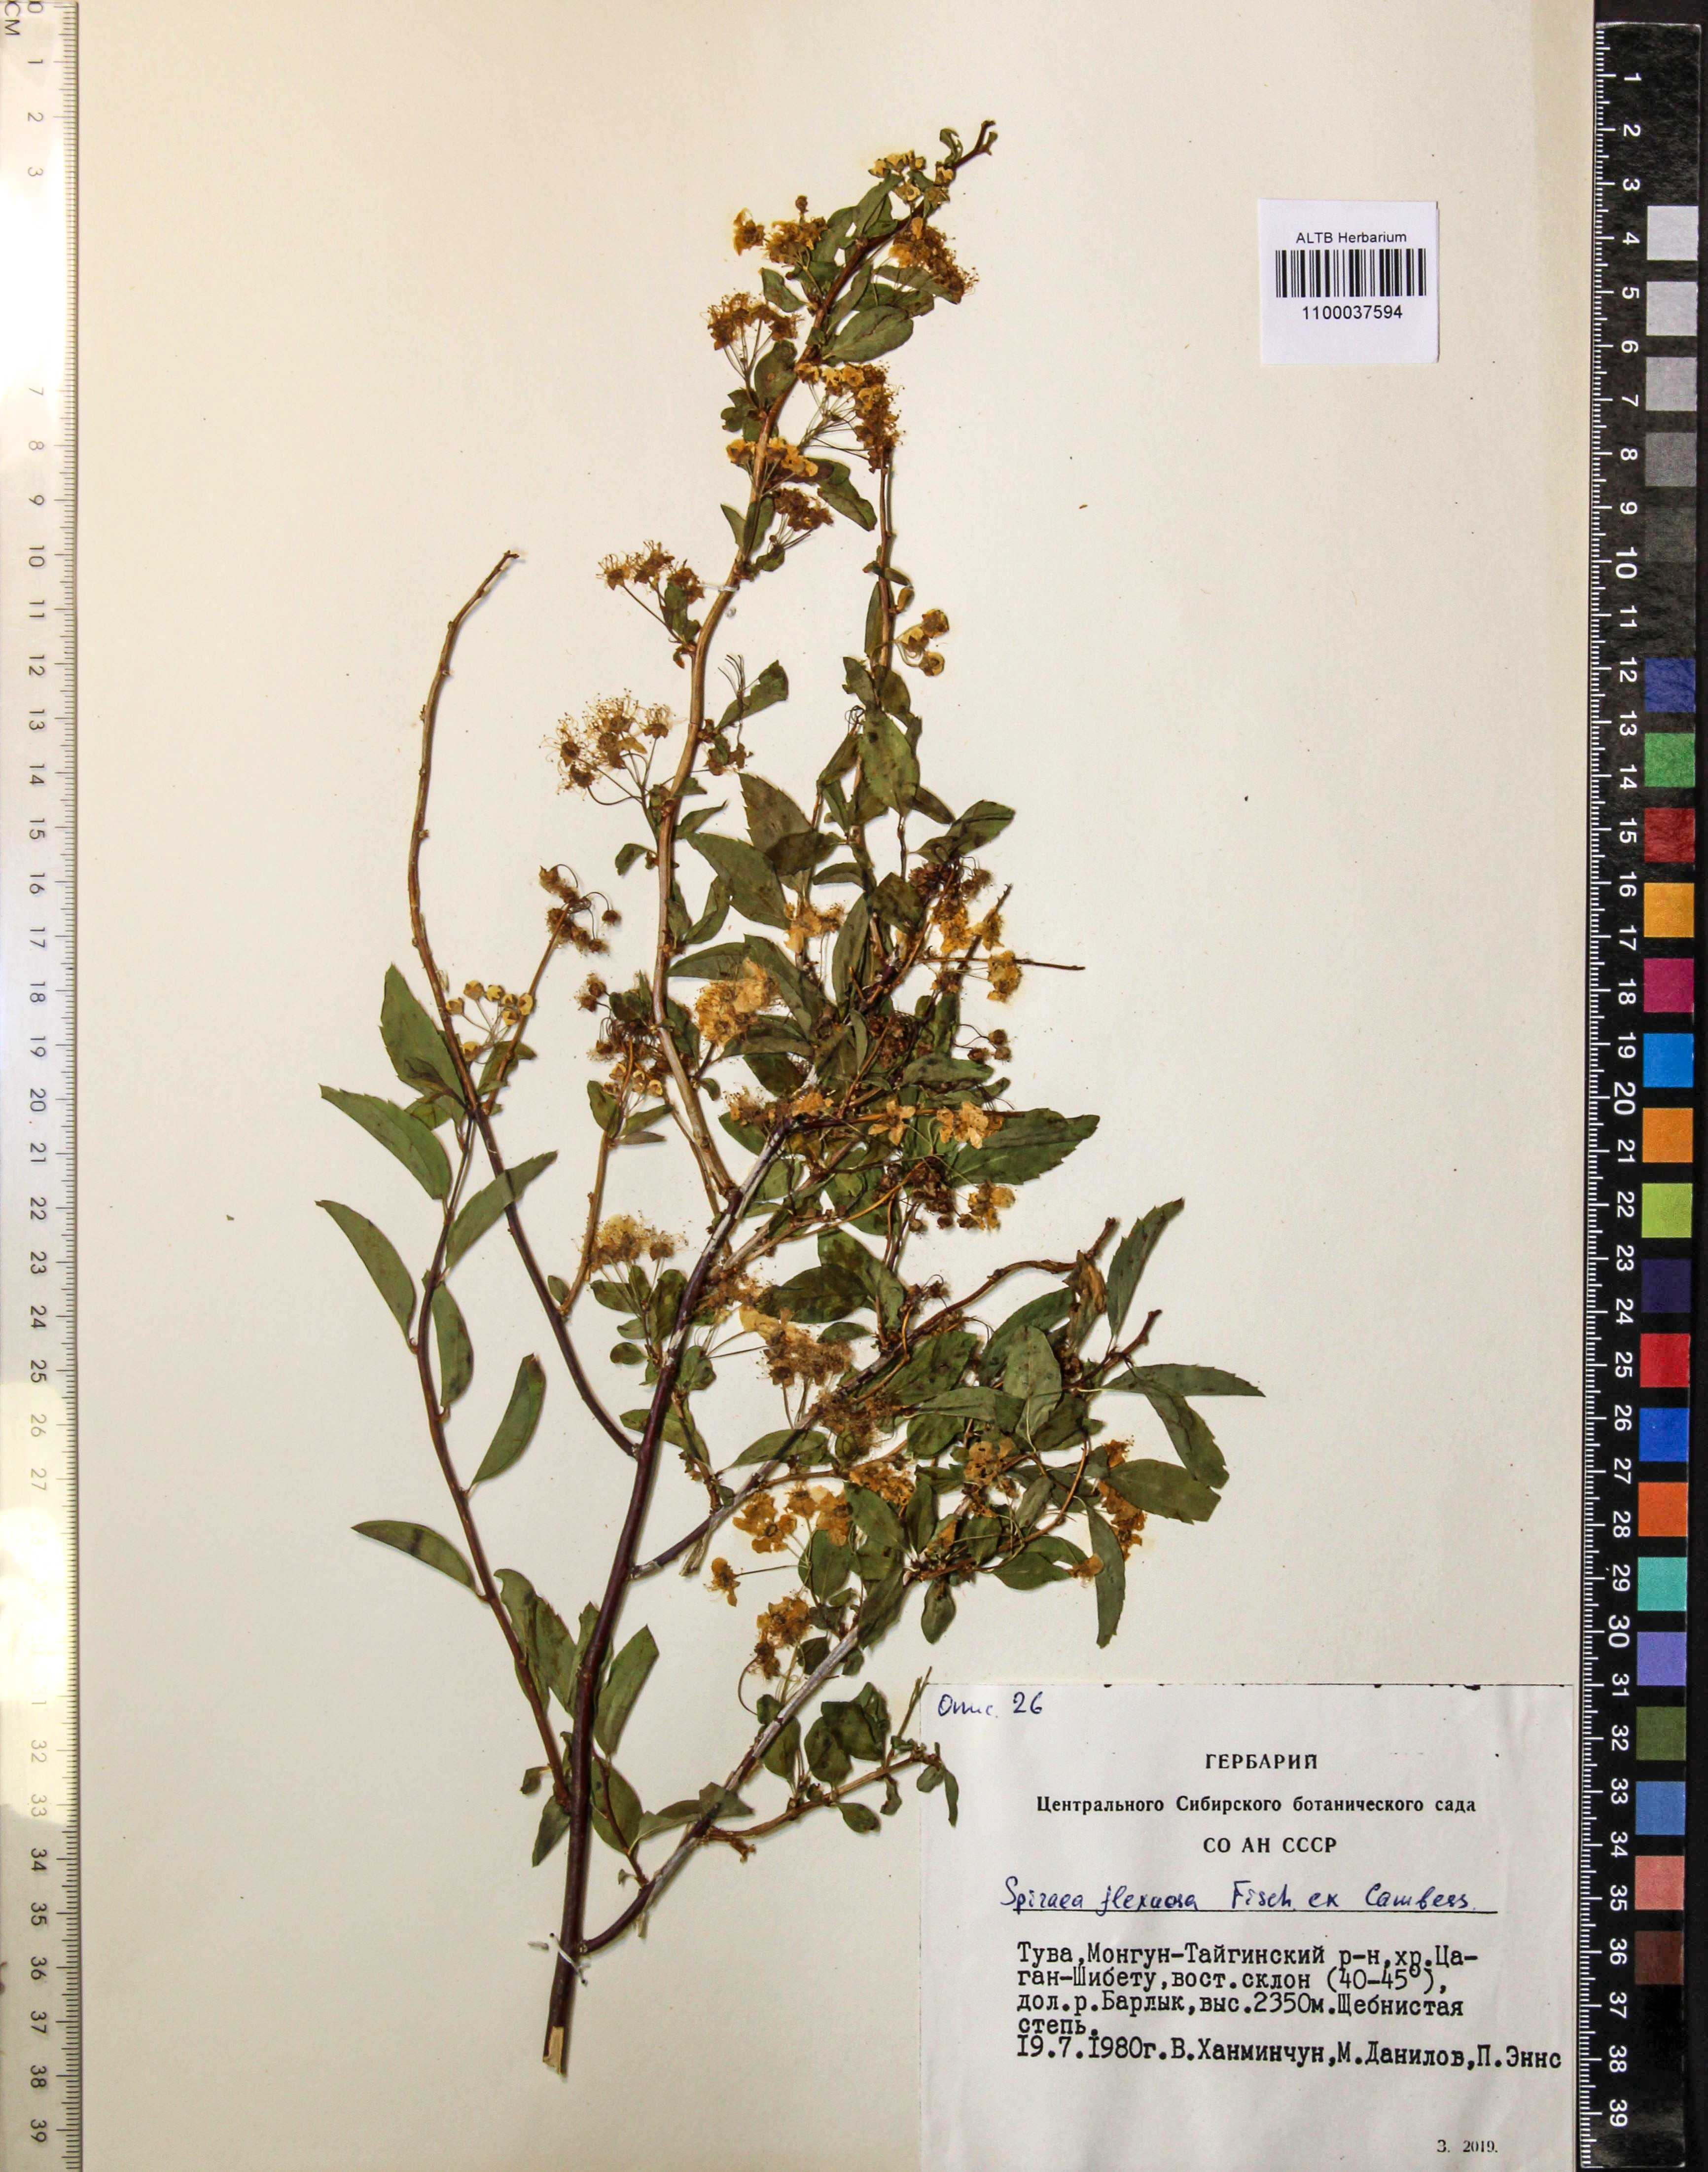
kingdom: Plantae
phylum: Tracheophyta
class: Magnoliopsida
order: Rosales
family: Rosaceae
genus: Spiraea
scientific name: Spiraea flexuosa
